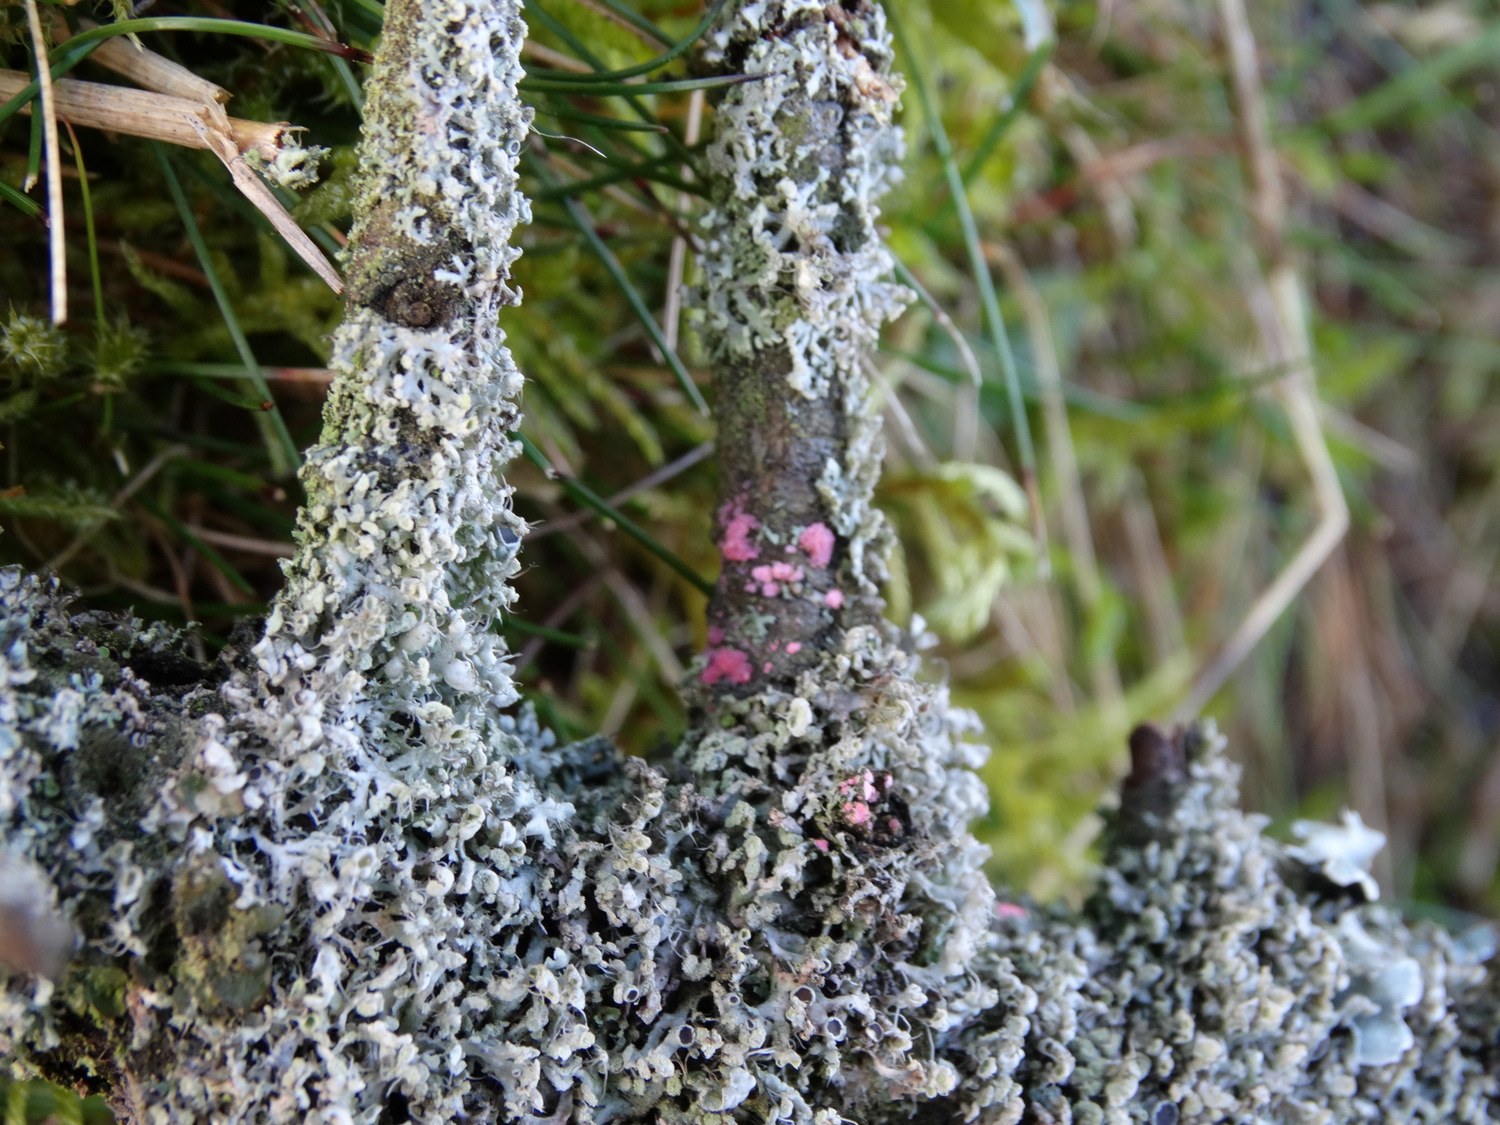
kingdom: Fungi
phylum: Ascomycota
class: Sordariomycetes
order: Hypocreales
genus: Illosporiopsis
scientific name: Illosporiopsis christiansenii
